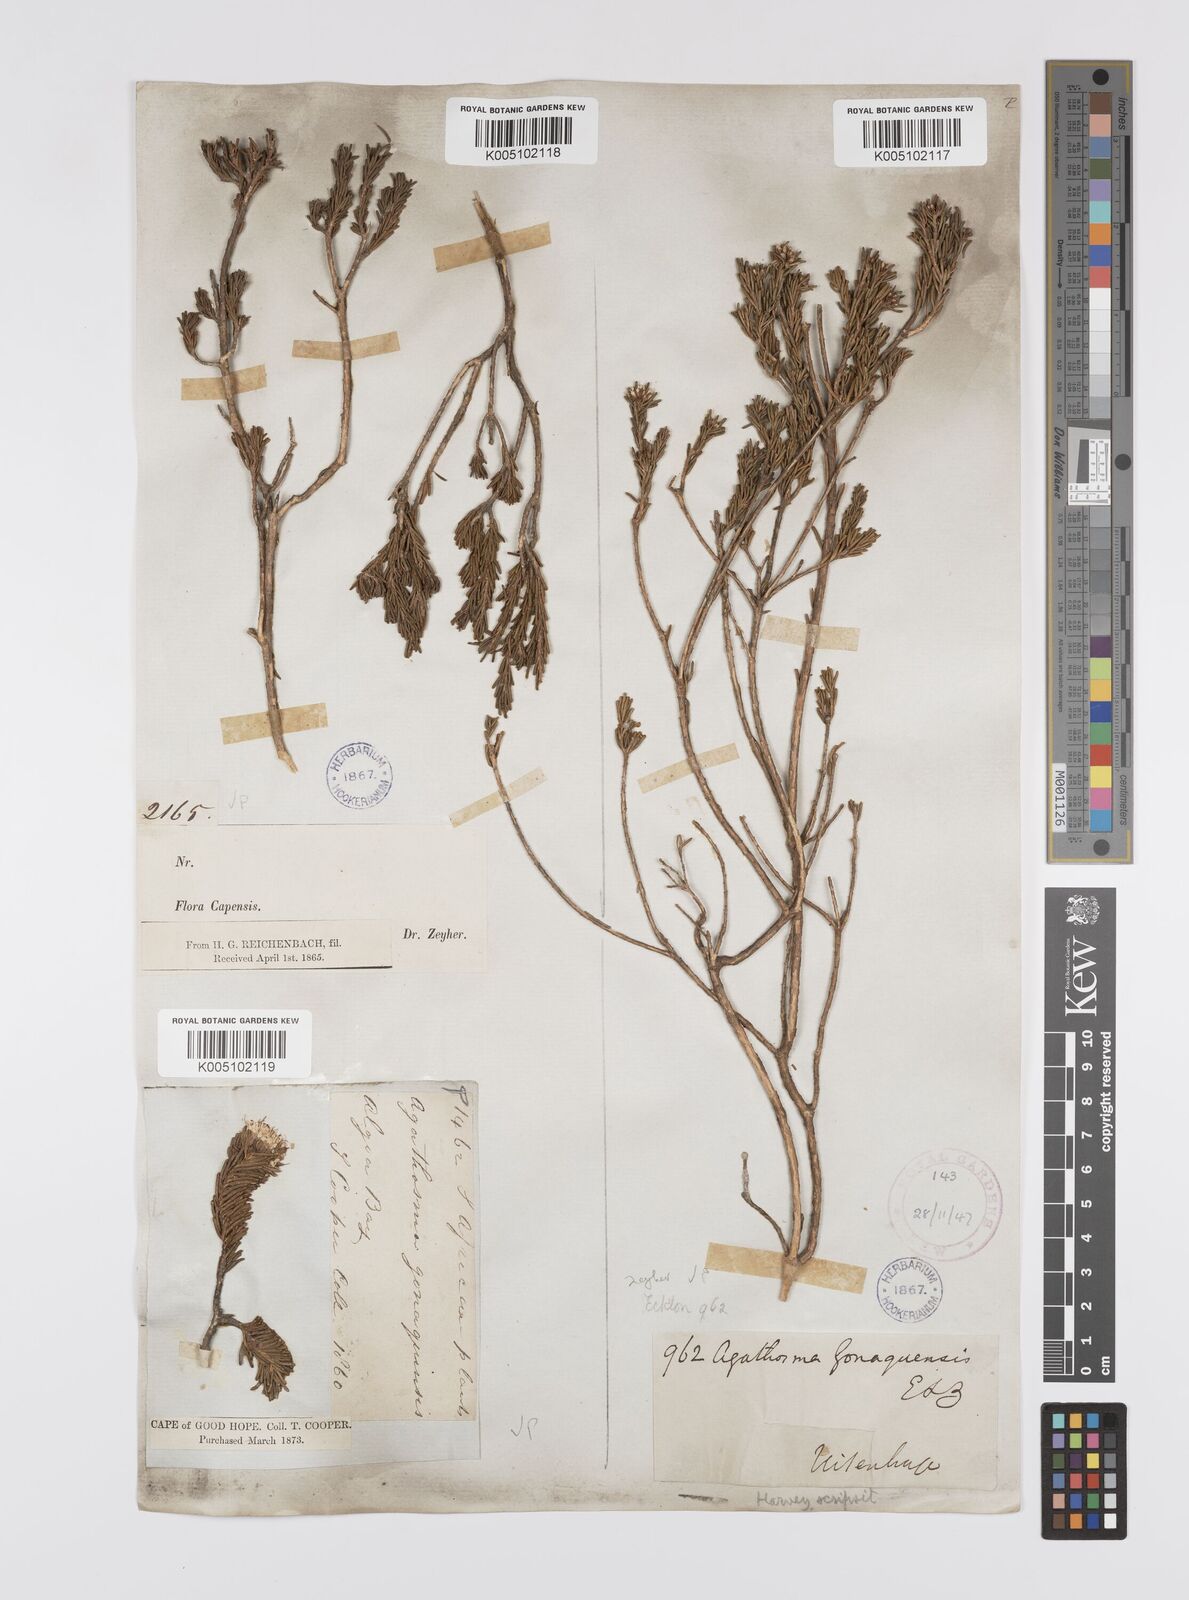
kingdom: Plantae
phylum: Tracheophyta
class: Magnoliopsida
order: Sapindales
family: Rutaceae
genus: Agathosma
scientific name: Agathosma gonaquensis
